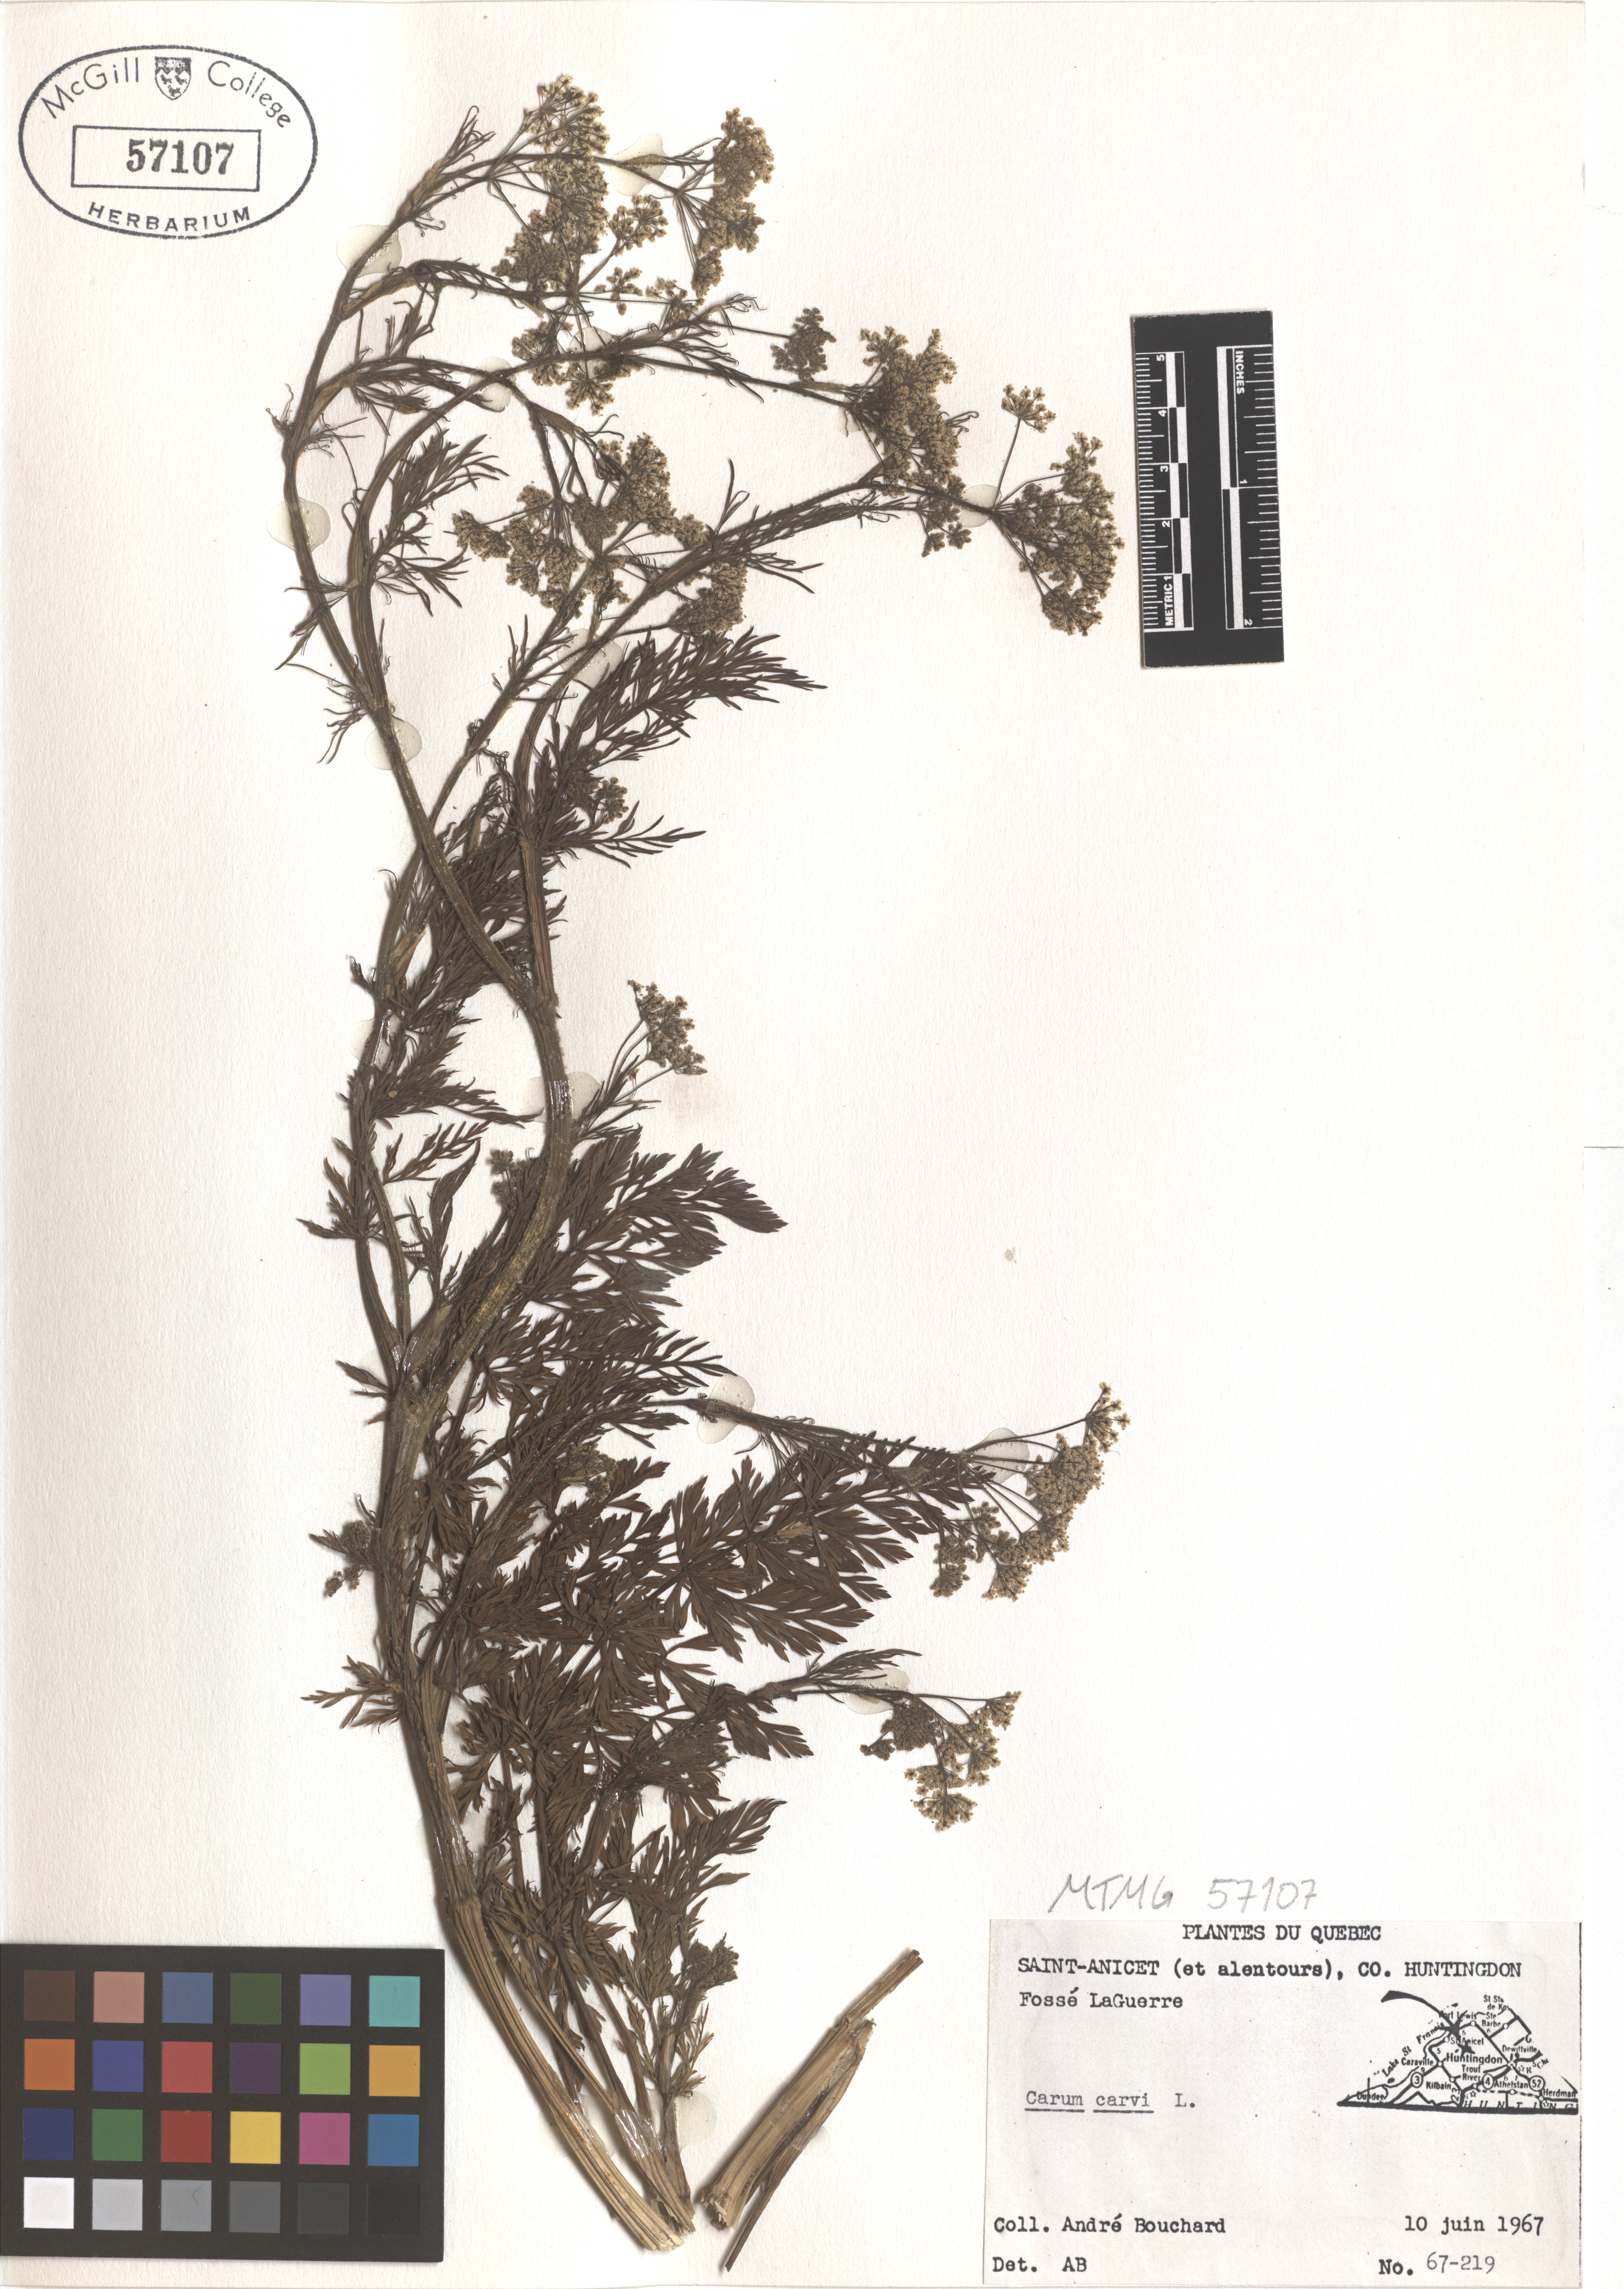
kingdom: Plantae
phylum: Tracheophyta
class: Magnoliopsida
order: Apiales
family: Apiaceae
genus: Carum
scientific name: Carum carvi
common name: Caraway
